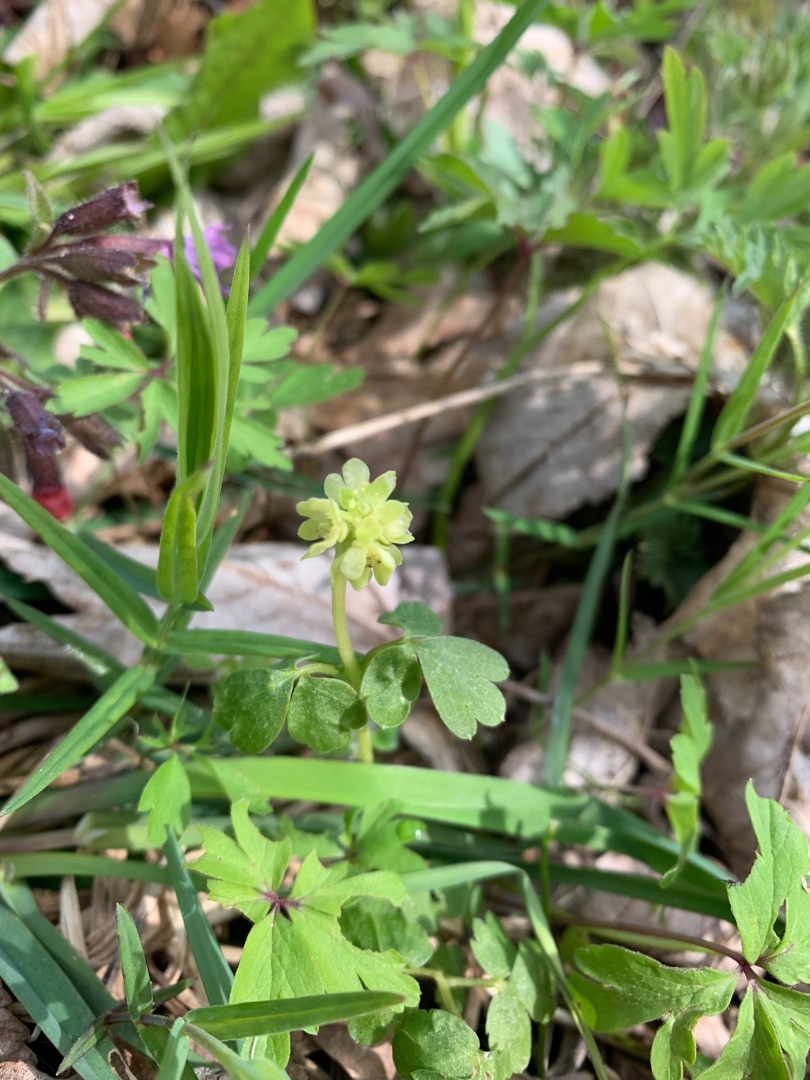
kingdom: Plantae
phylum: Tracheophyta
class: Magnoliopsida
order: Dipsacales
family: Viburnaceae
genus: Adoxa
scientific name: Adoxa moschatellina
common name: Desmerurt
